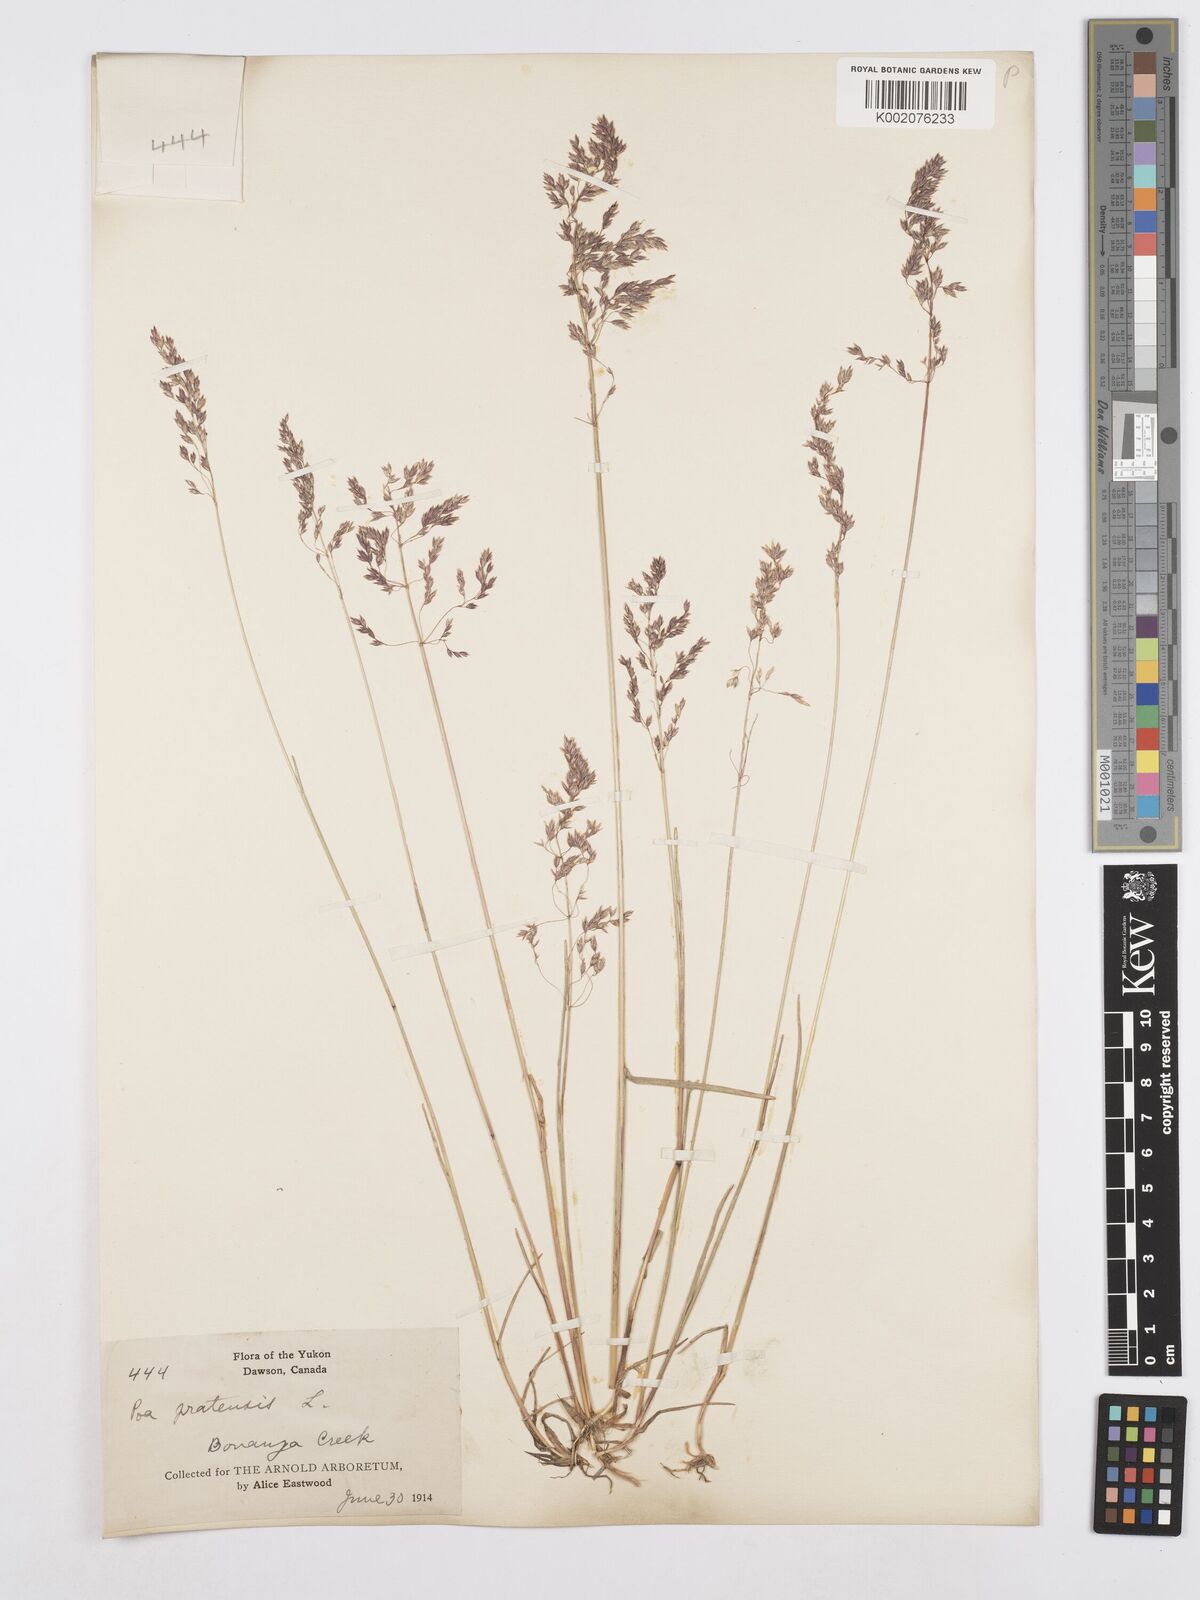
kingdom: Plantae
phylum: Tracheophyta
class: Liliopsida
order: Poales
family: Poaceae
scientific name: Poaceae
